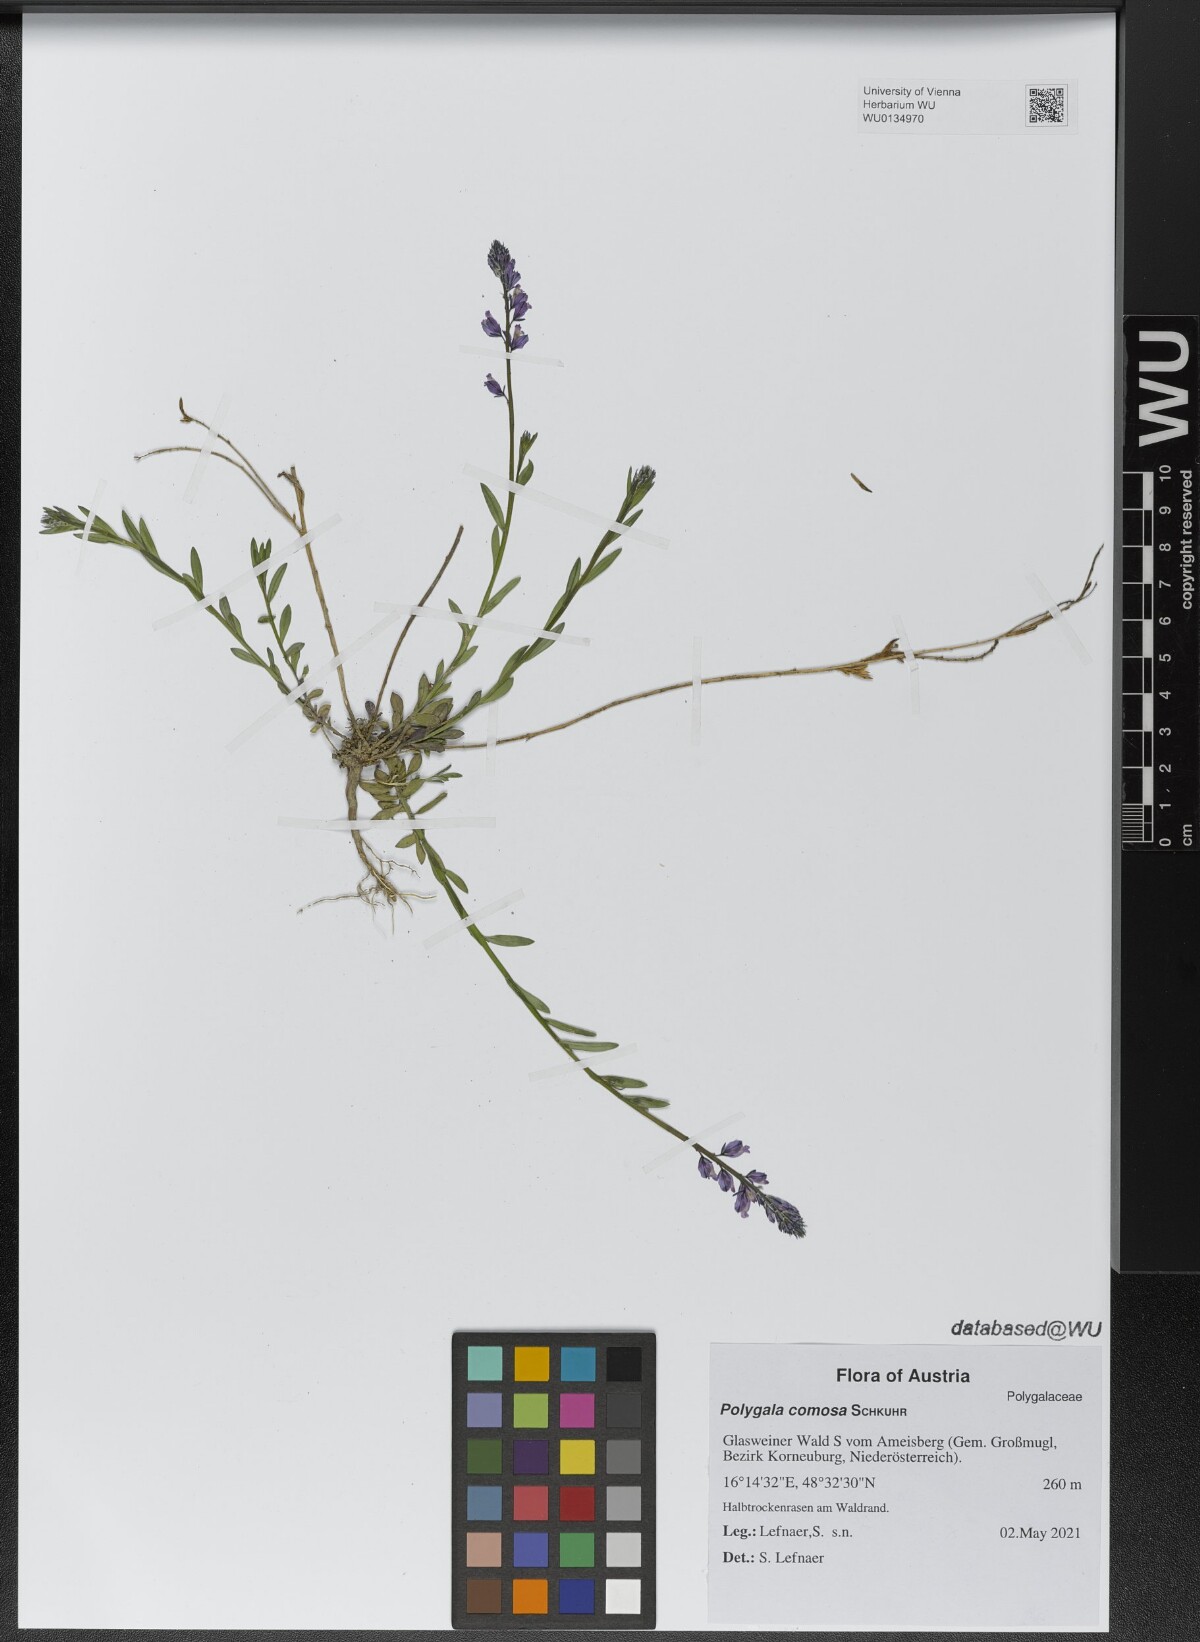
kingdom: Plantae
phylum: Tracheophyta
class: Magnoliopsida
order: Fabales
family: Polygalaceae
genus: Polygala
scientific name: Polygala comosa
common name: Tufted milkwort
